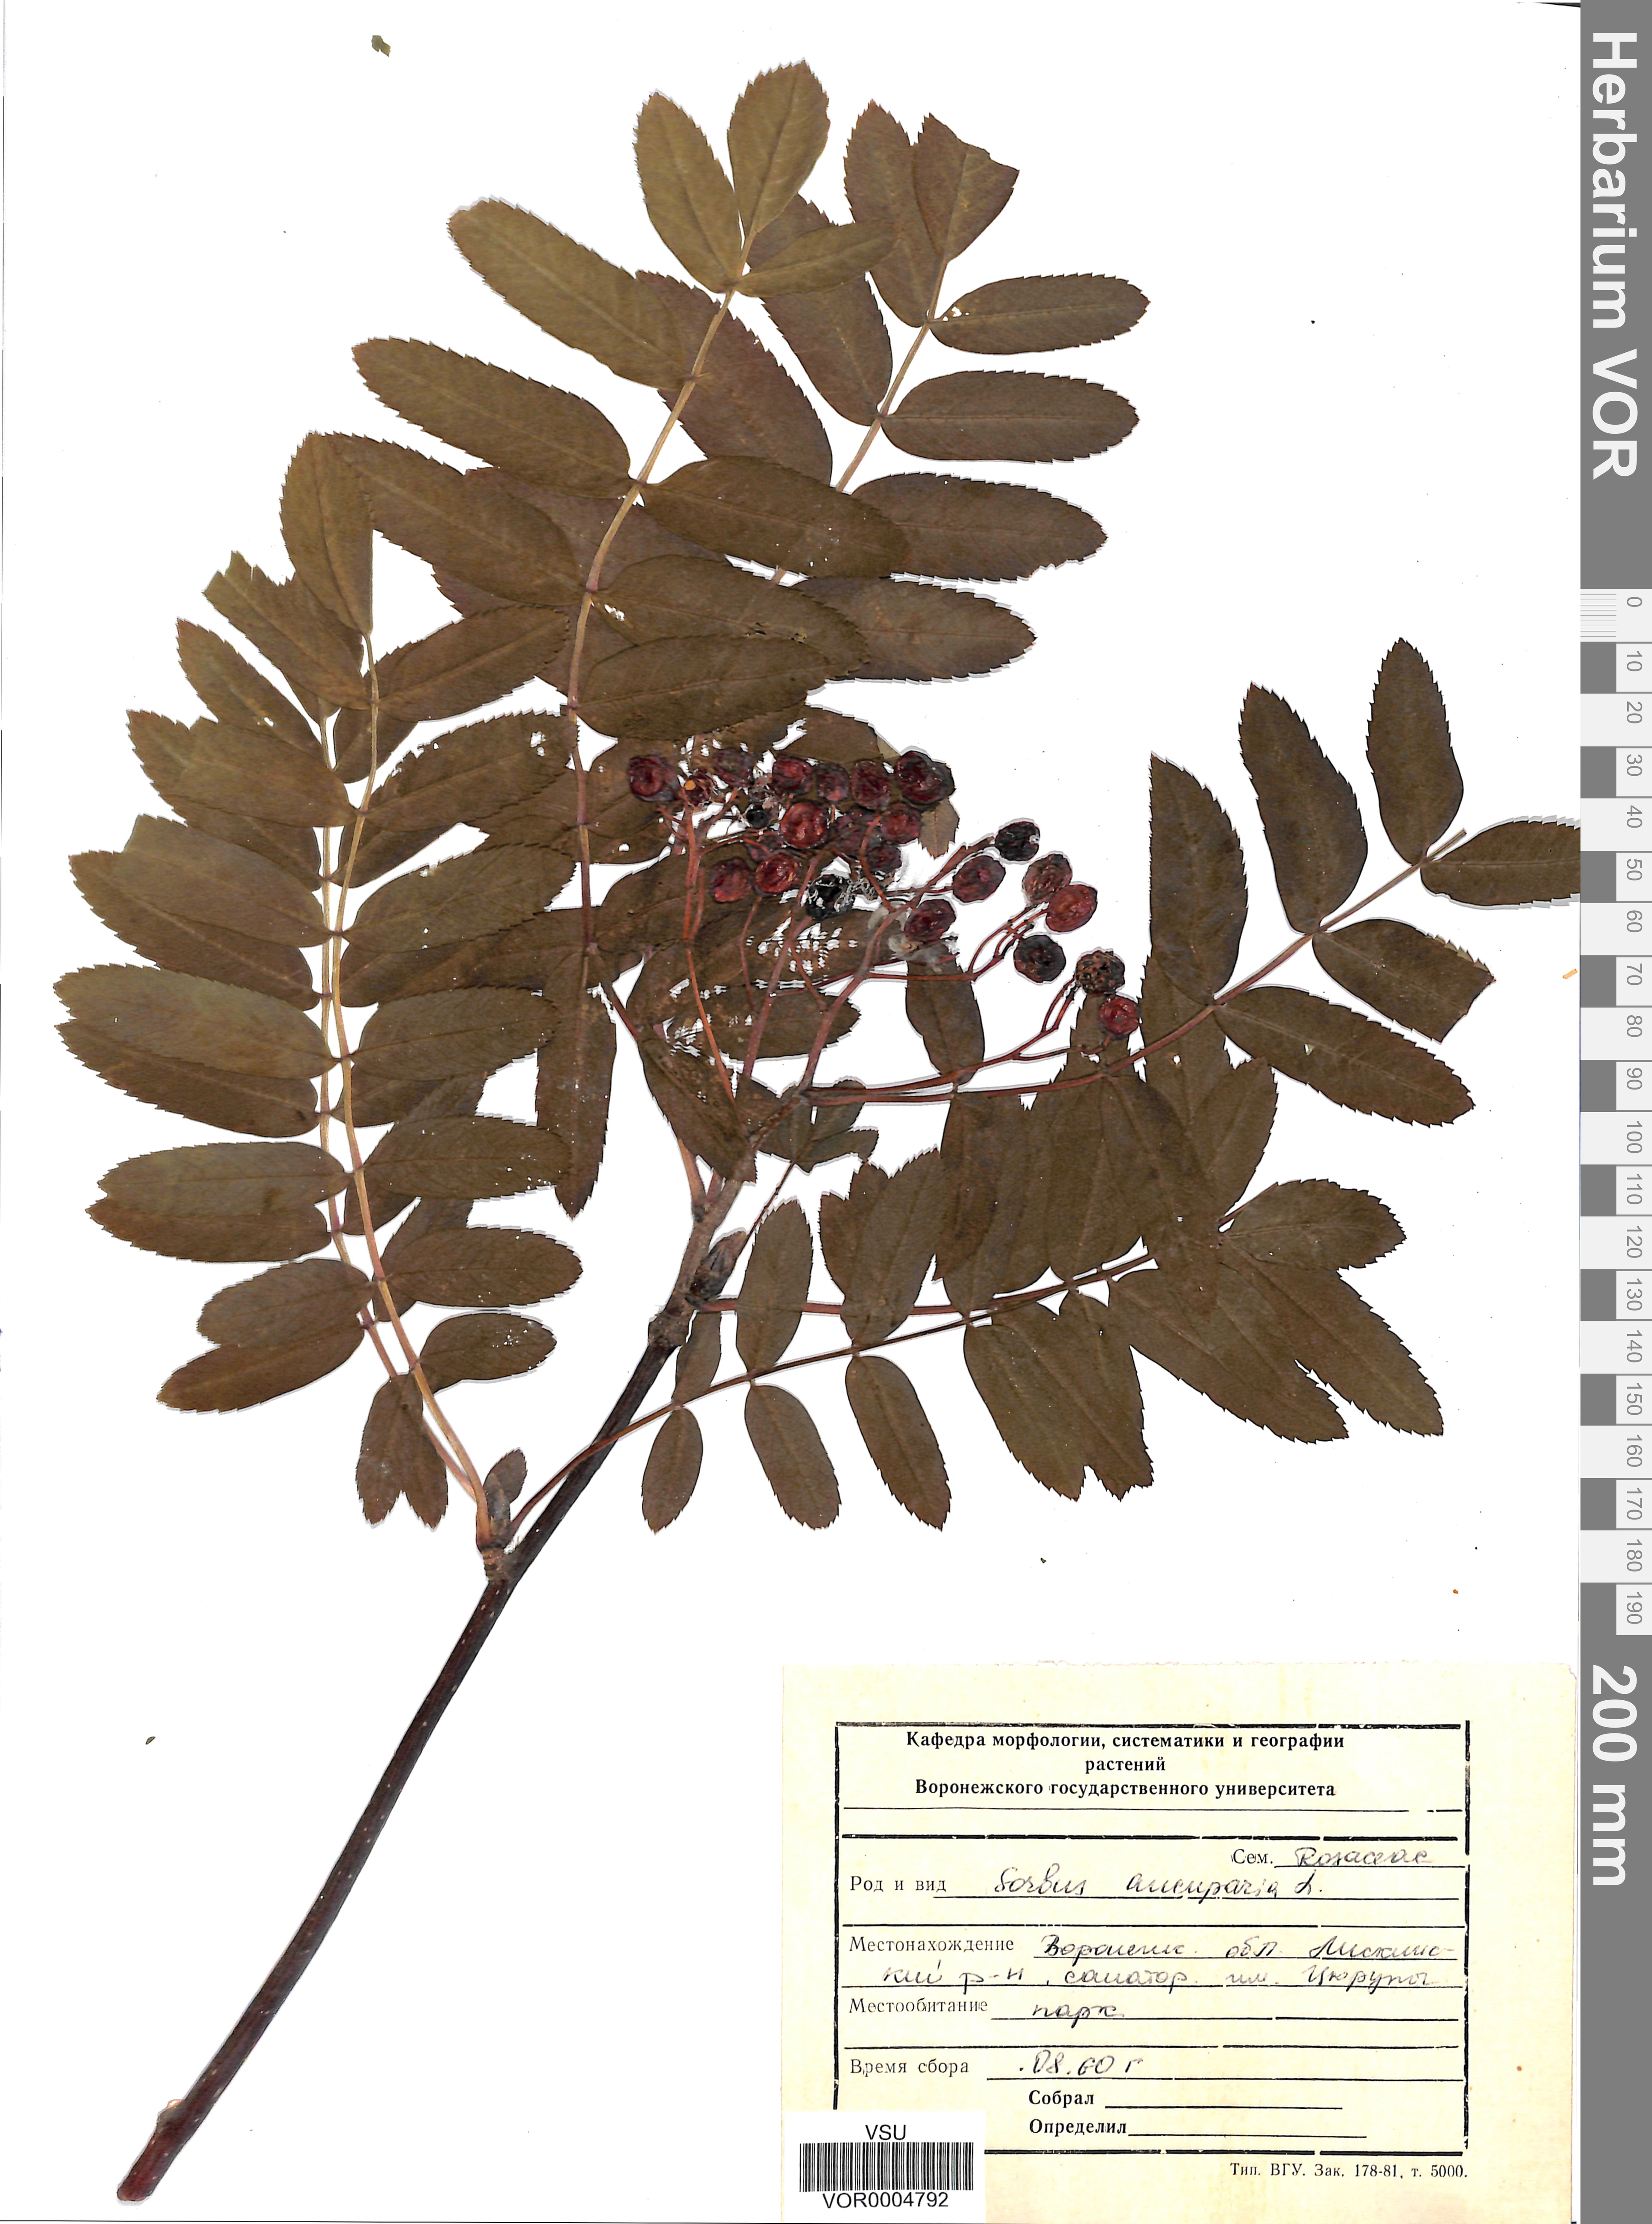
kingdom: Plantae
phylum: Tracheophyta
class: Magnoliopsida
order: Rosales
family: Rosaceae
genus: Sorbus
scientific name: Sorbus aucuparia
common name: Rowan
